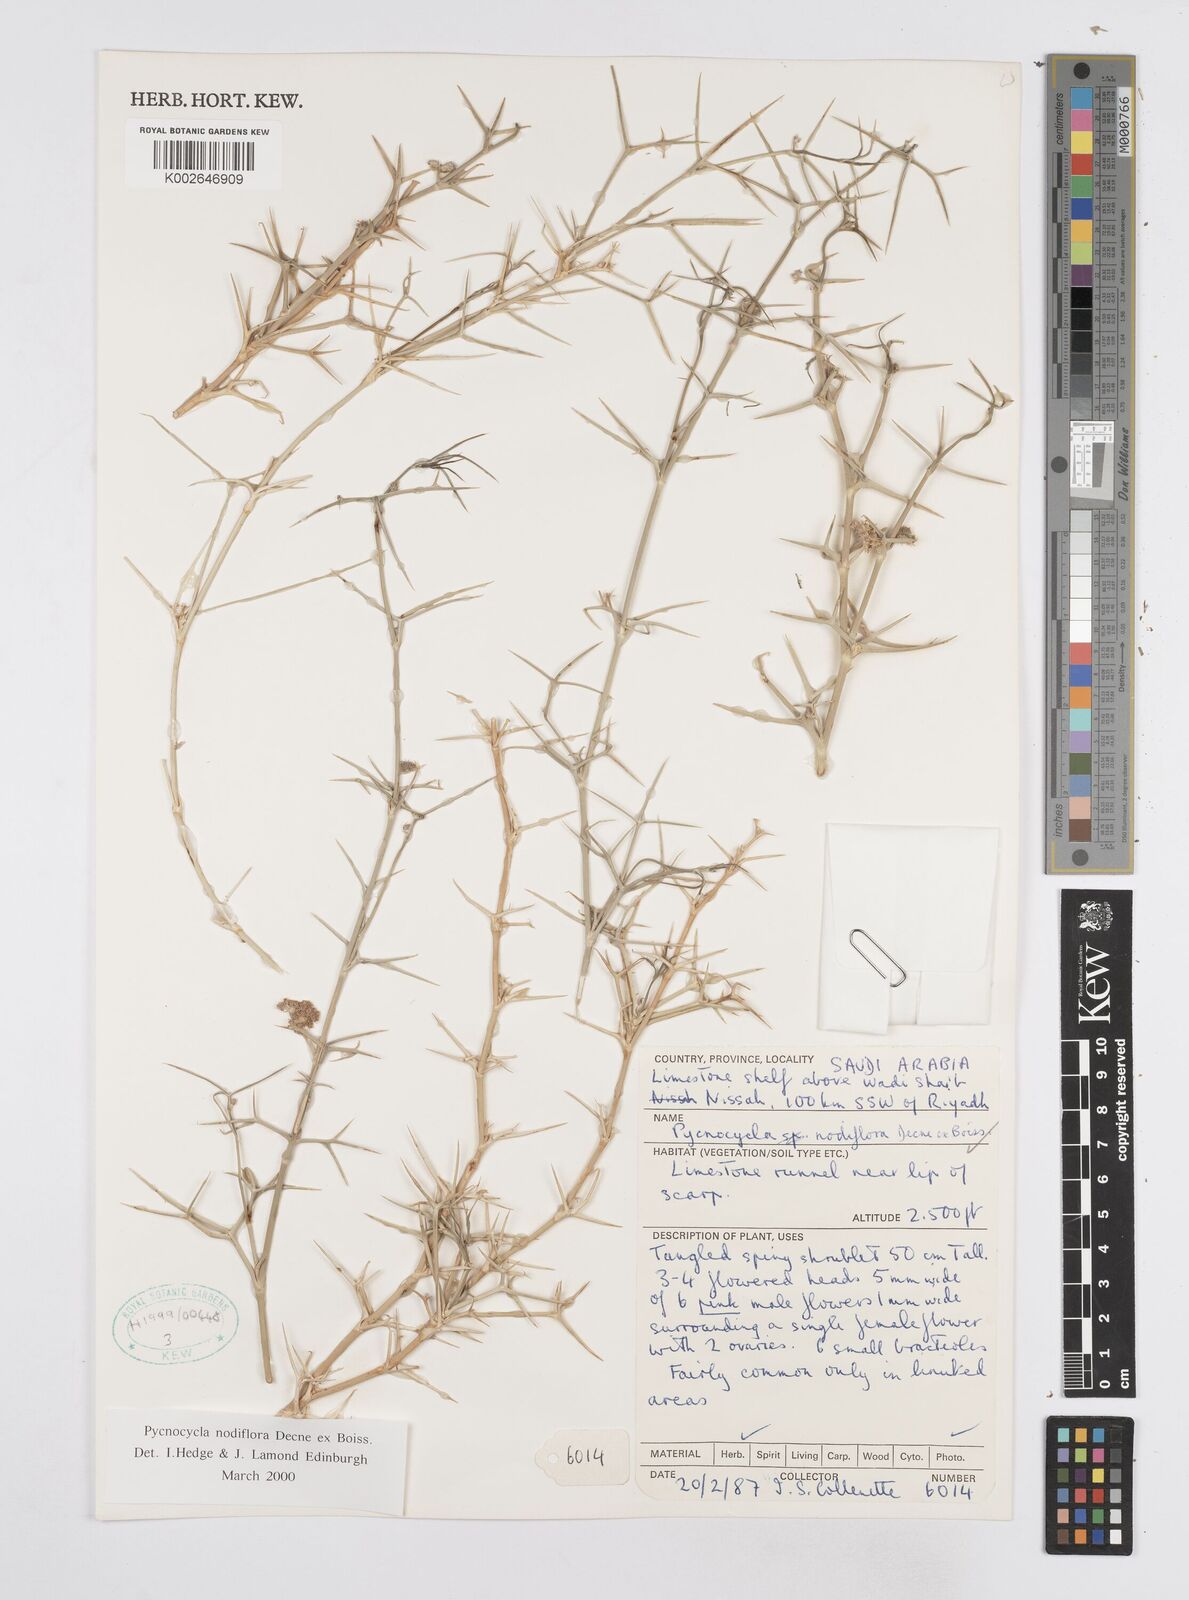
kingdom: Plantae
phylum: Tracheophyta
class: Magnoliopsida
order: Apiales
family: Apiaceae
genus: Pycnocycla
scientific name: Pycnocycla nodiflora
